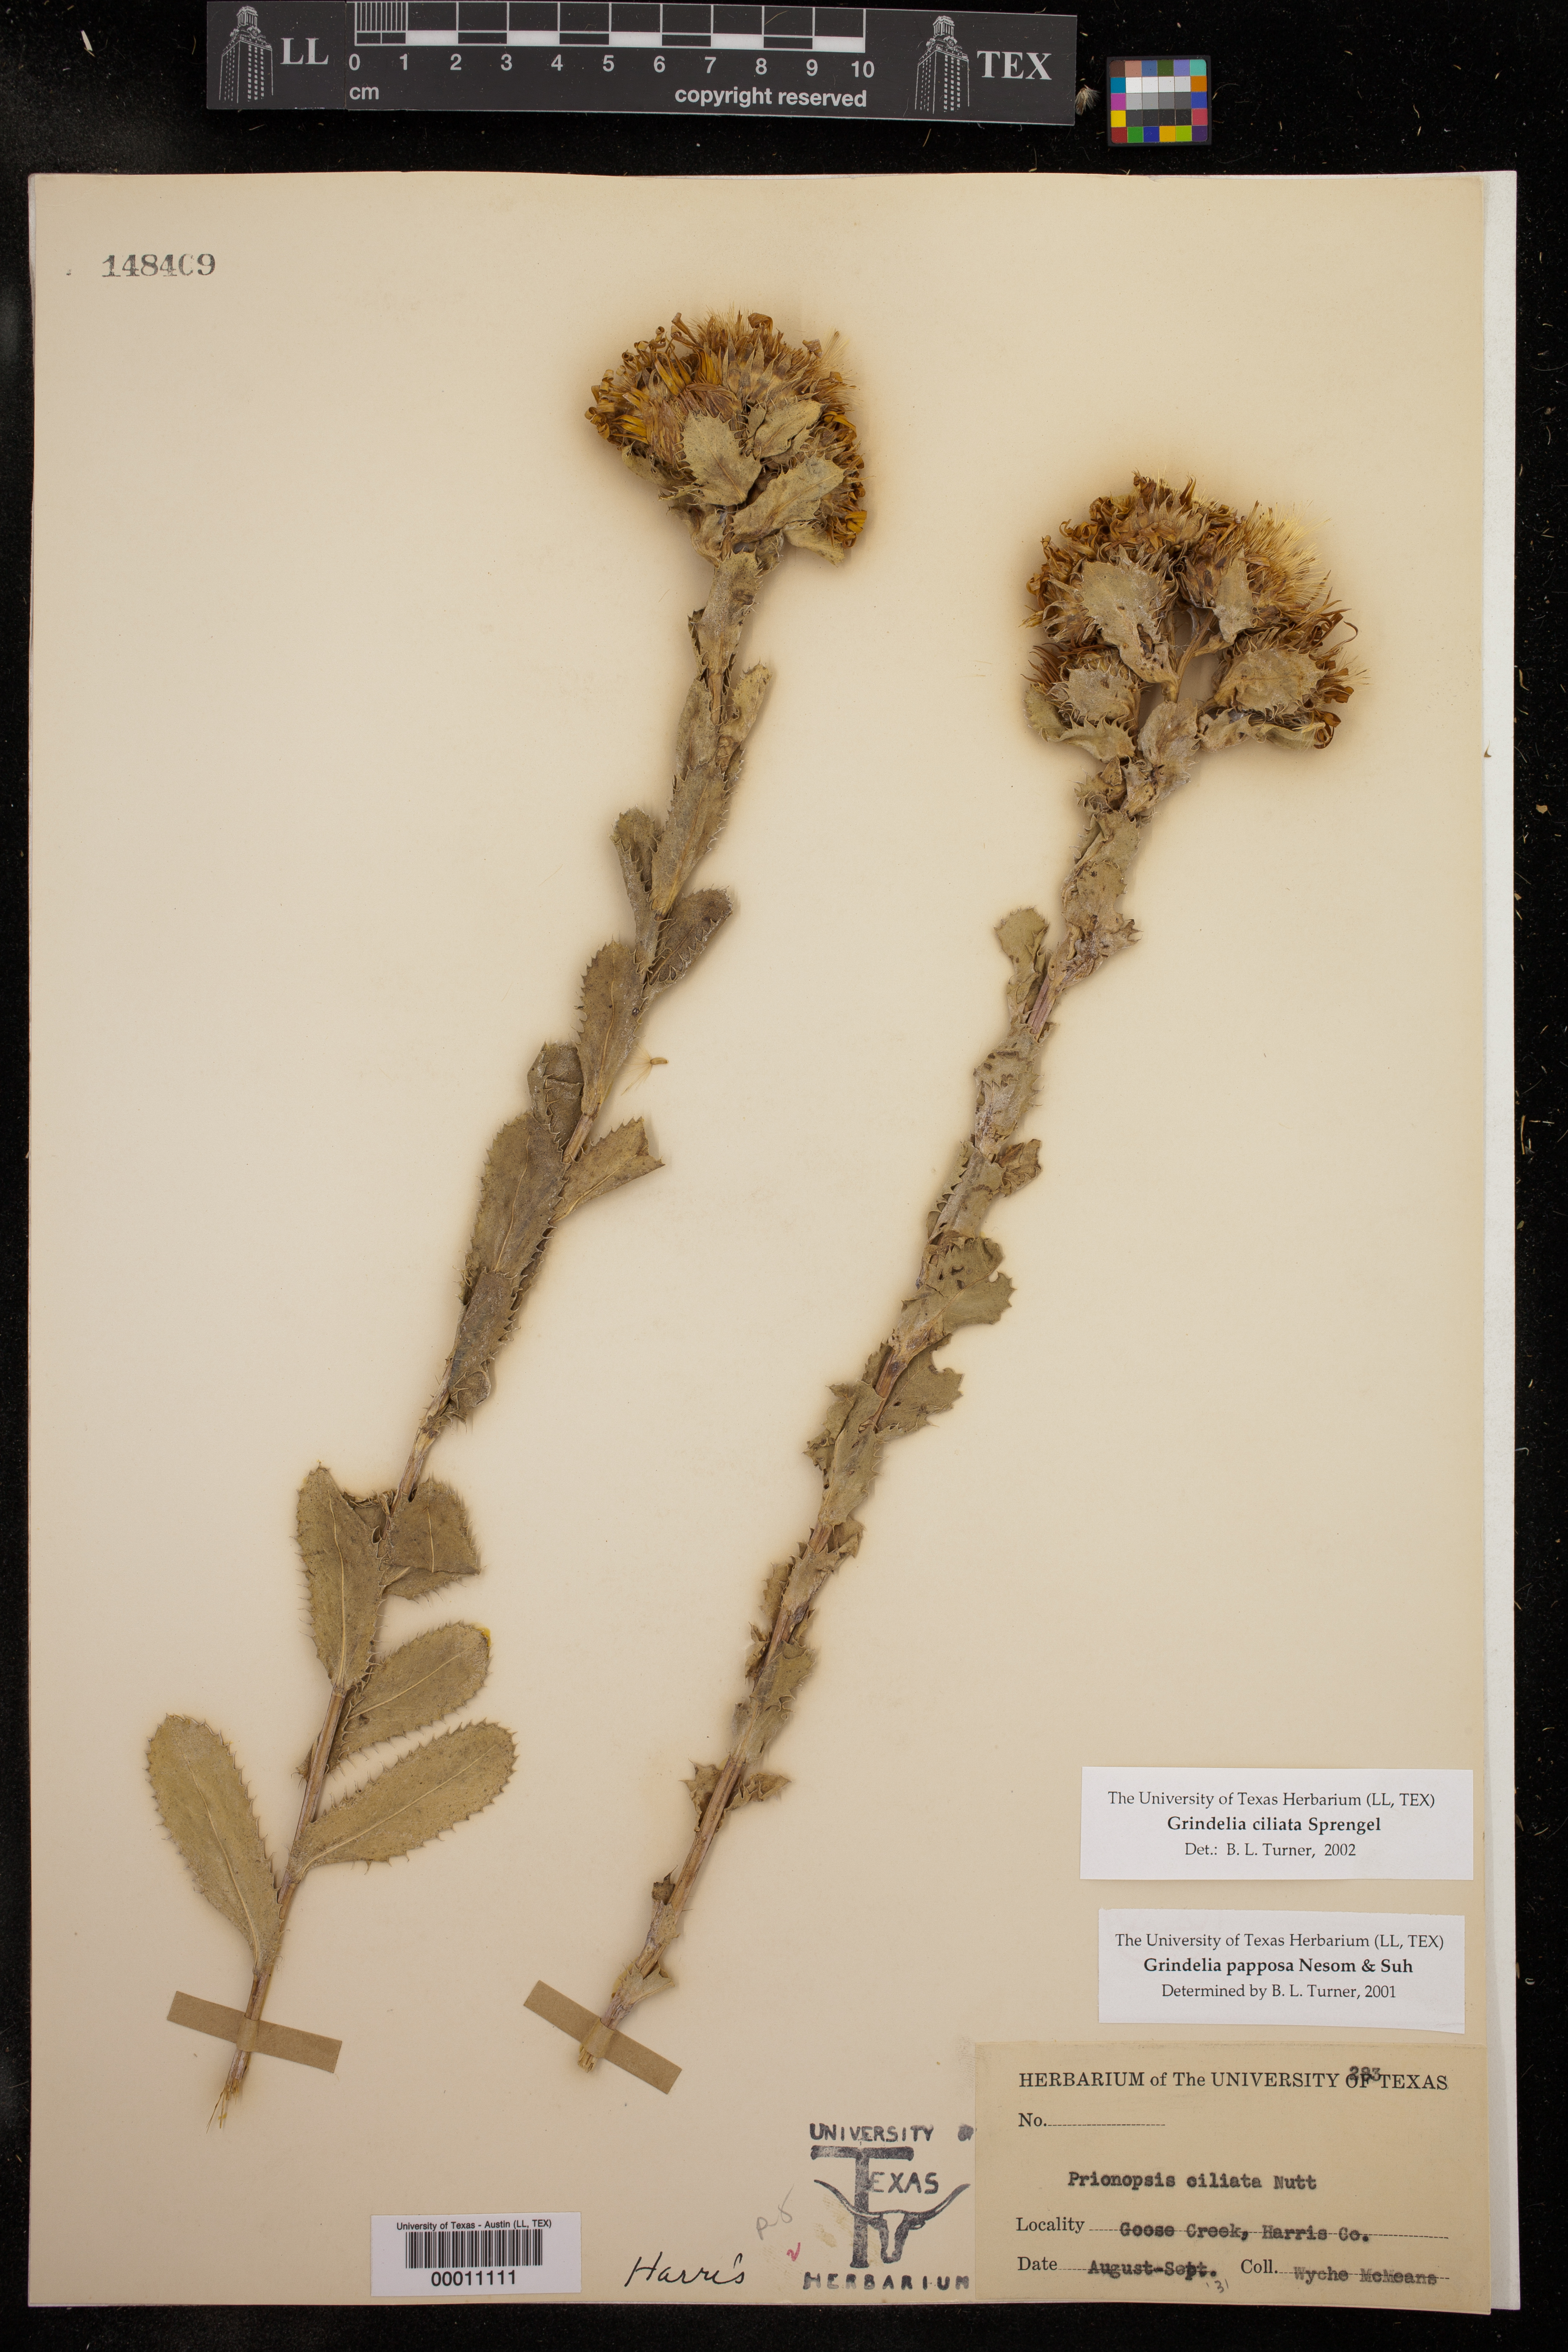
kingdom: Plantae
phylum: Tracheophyta
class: Magnoliopsida
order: Asterales
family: Asteraceae
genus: Grindelia
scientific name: Grindelia ciliata
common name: Goldenweed
